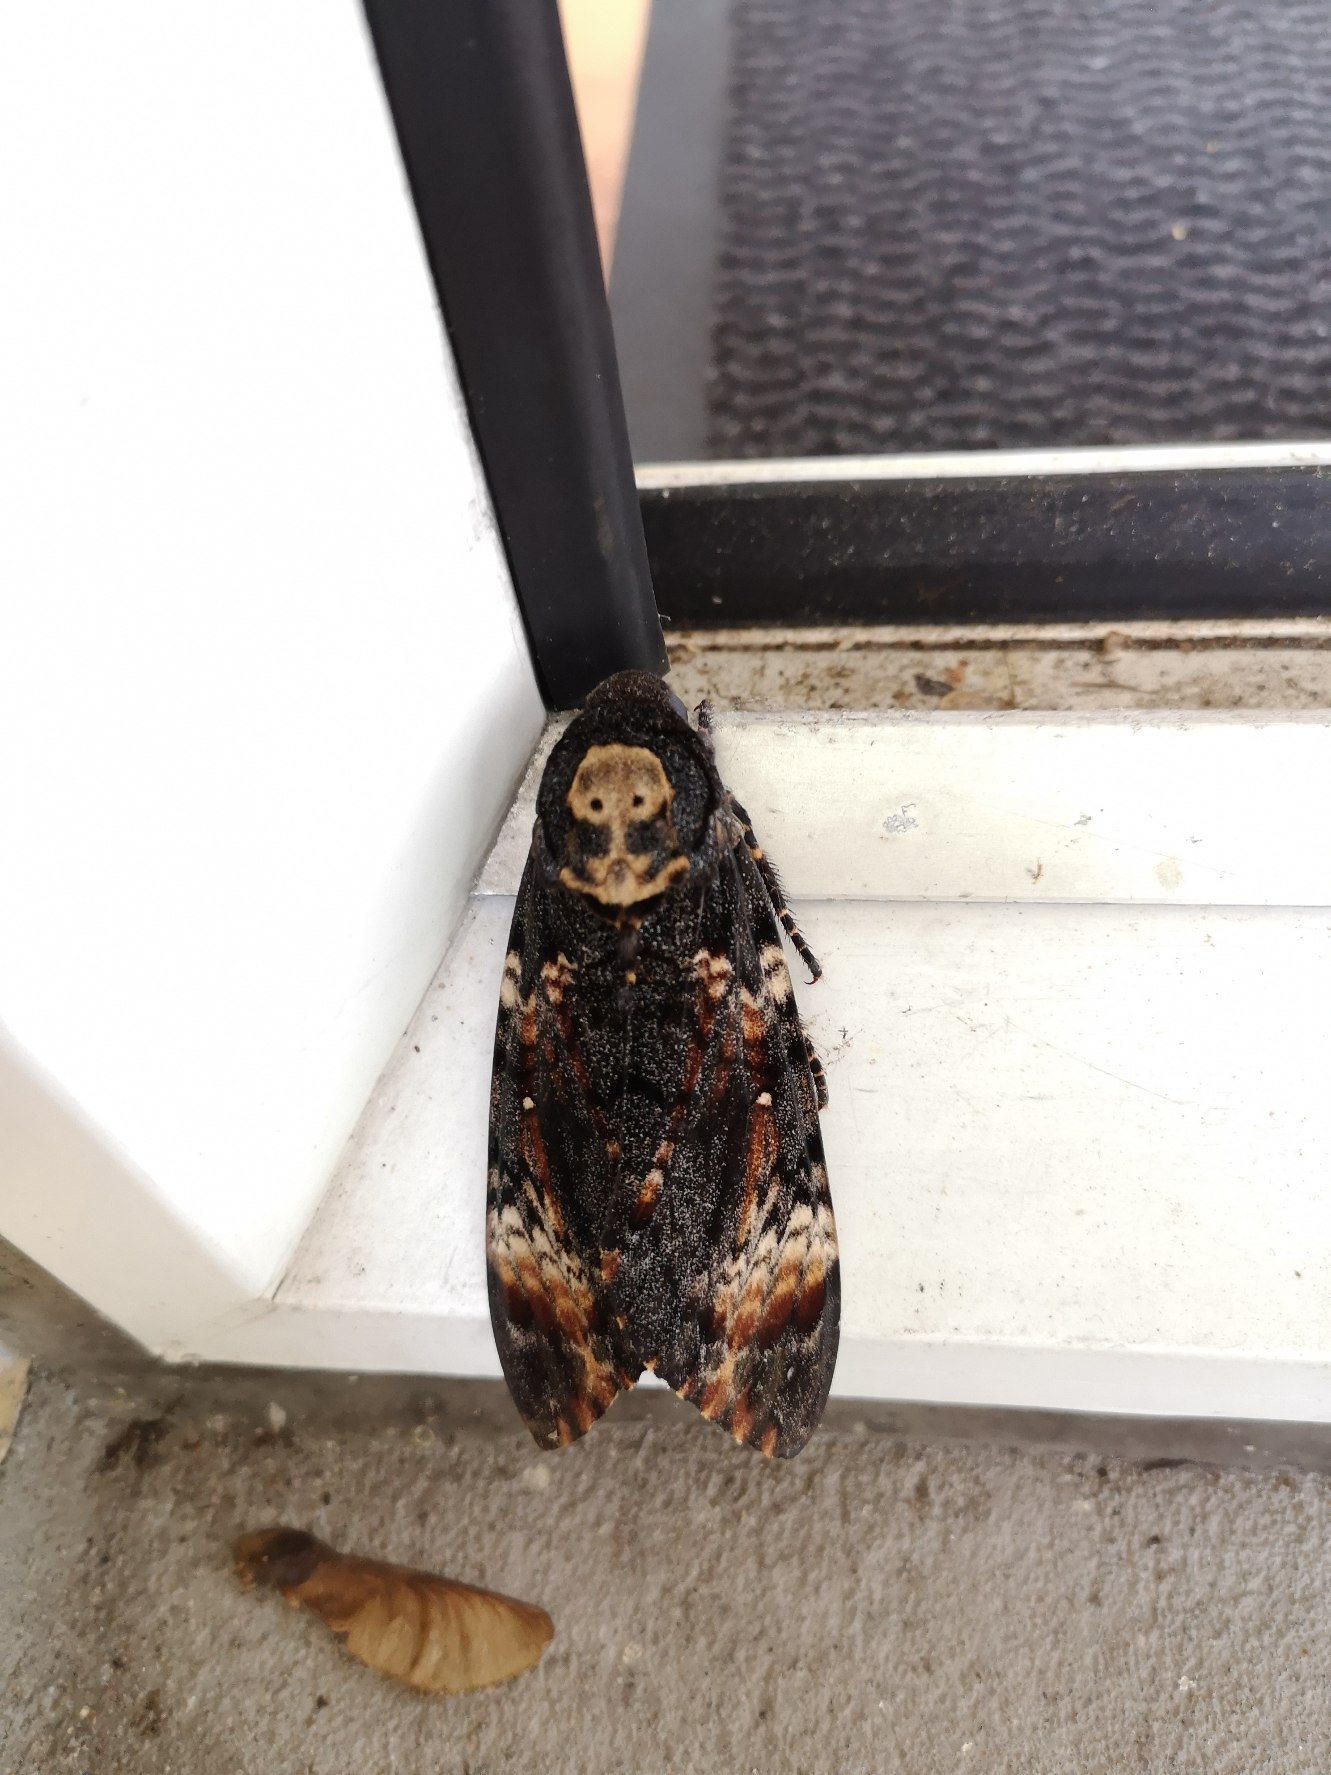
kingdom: Animalia
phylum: Arthropoda
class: Insecta
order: Lepidoptera
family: Sphingidae
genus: Acherontia
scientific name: Acherontia atropos
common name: Dødningehoved
